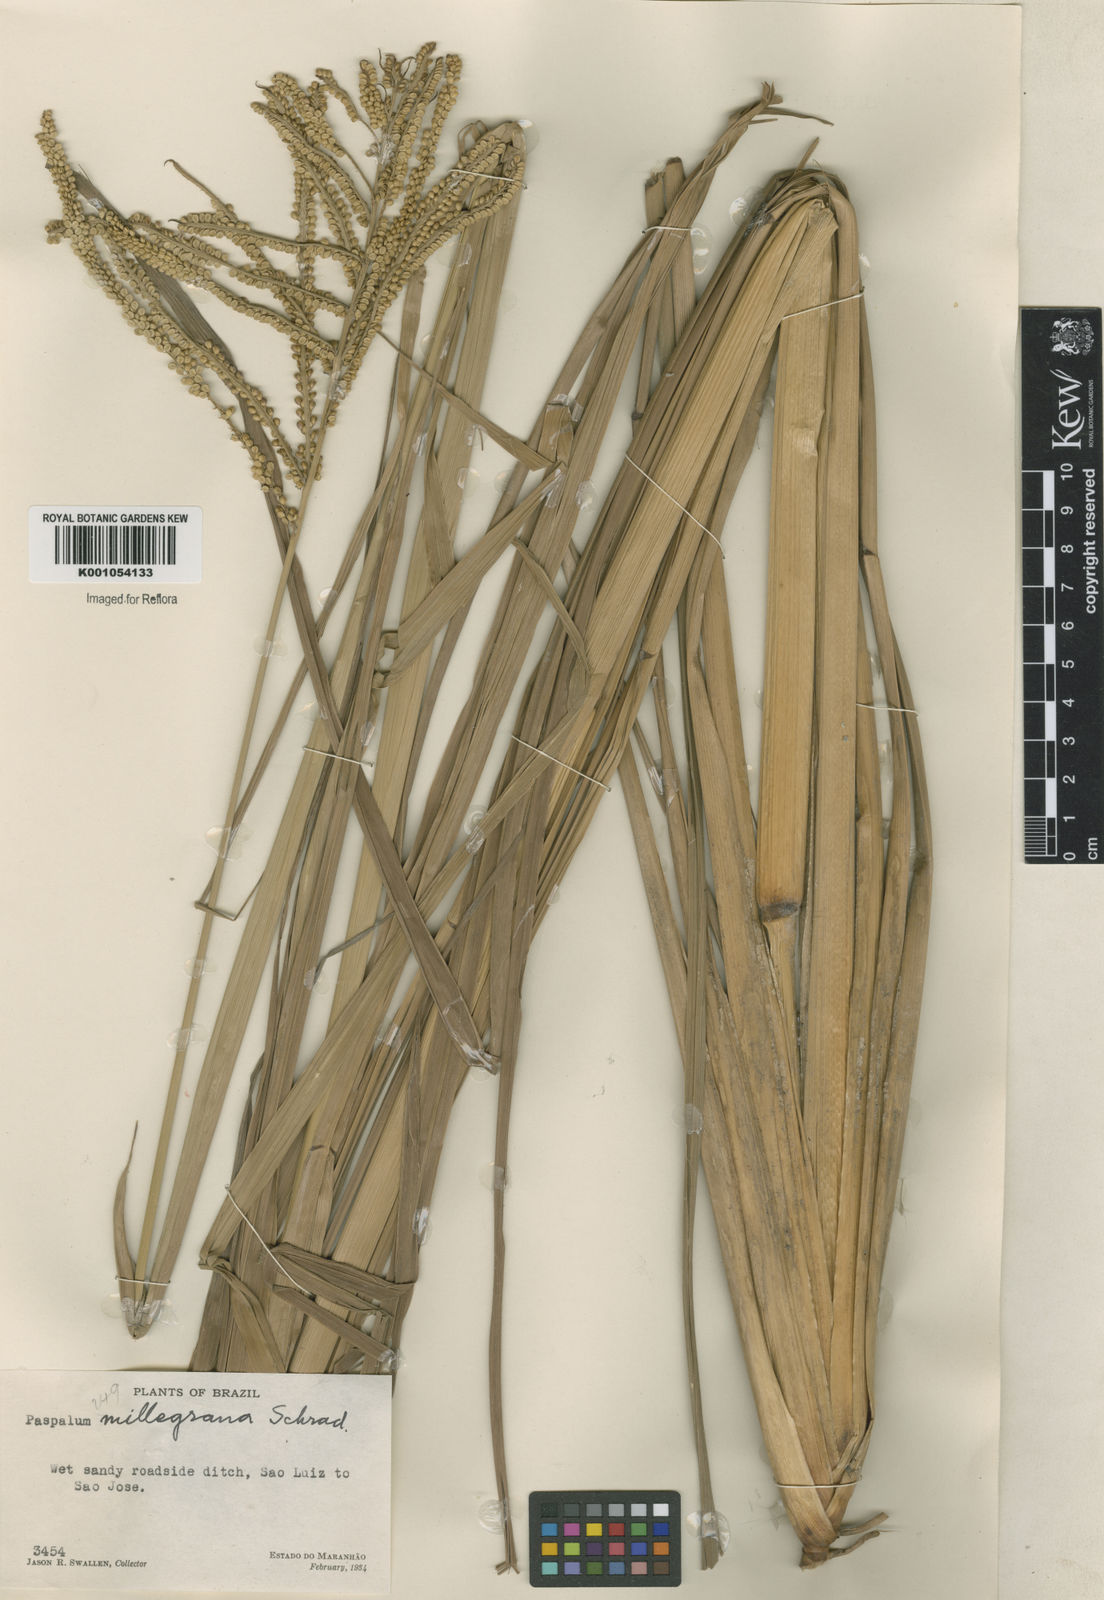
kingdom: Plantae
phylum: Tracheophyta
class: Liliopsida
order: Poales
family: Poaceae
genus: Paspalum
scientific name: Paspalum
